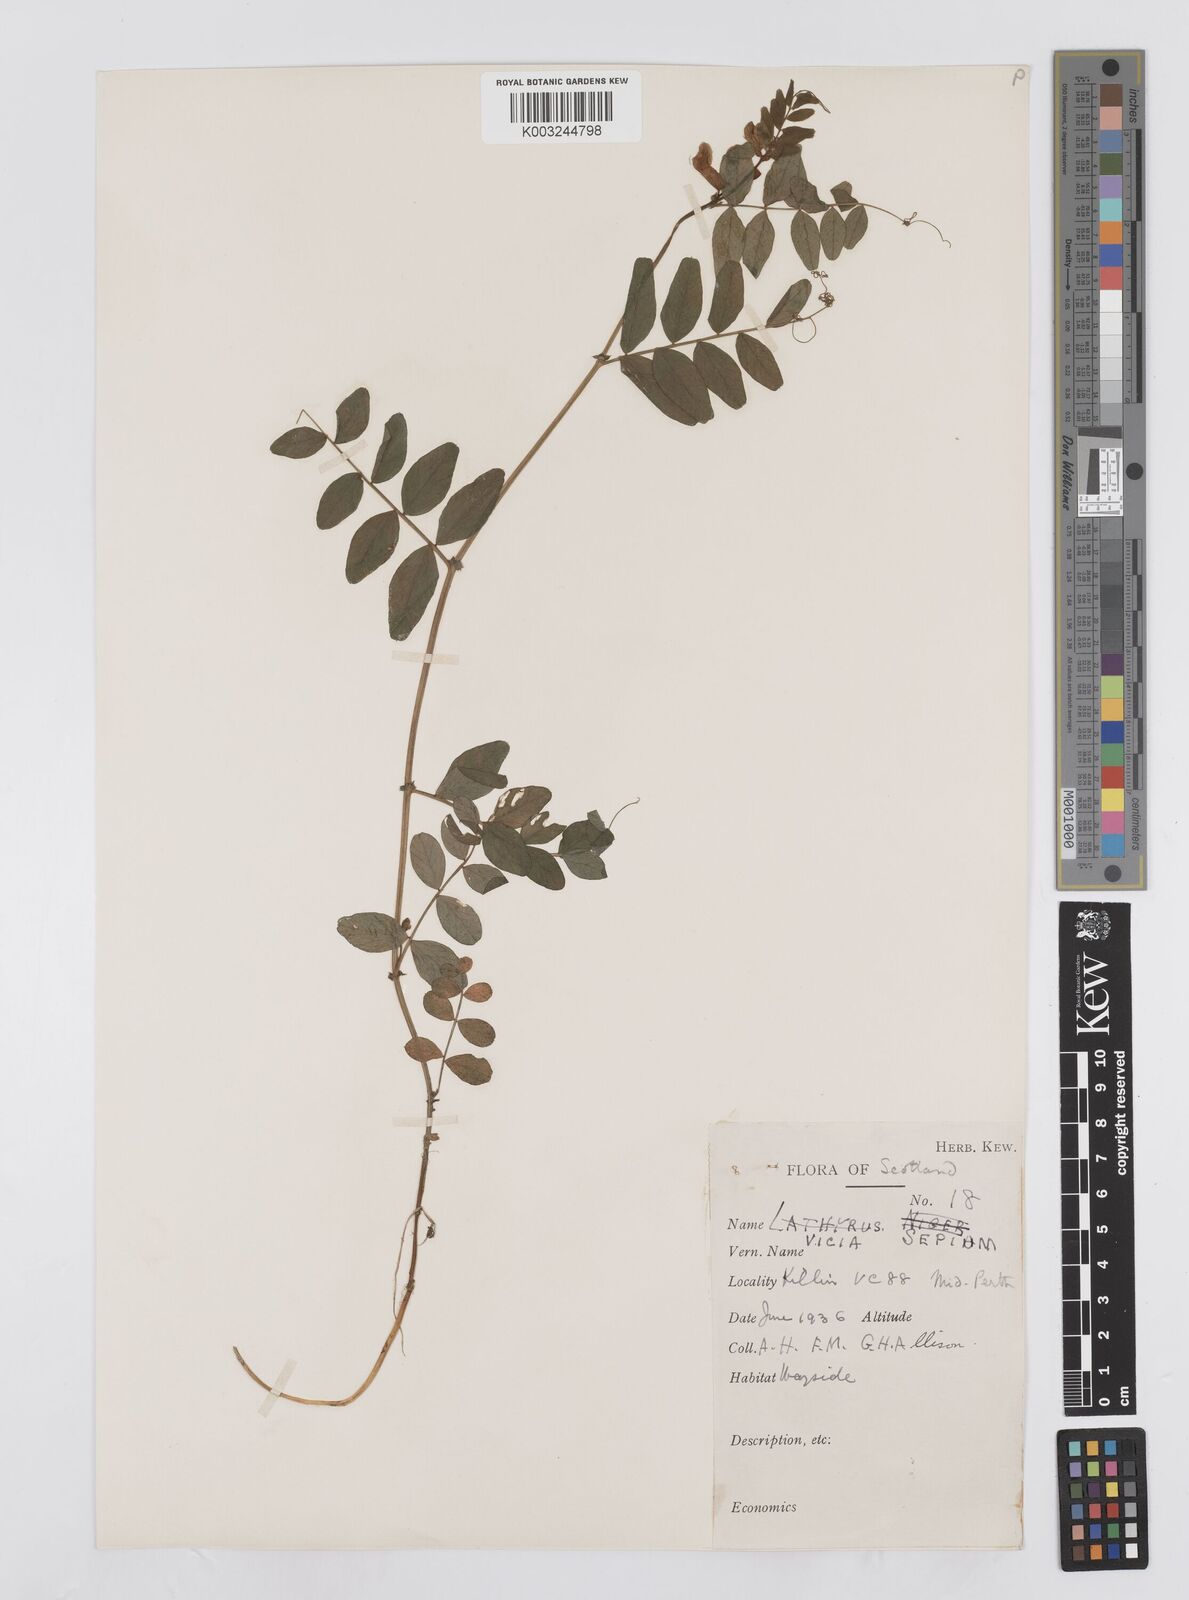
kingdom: Plantae
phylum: Tracheophyta
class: Magnoliopsida
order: Fabales
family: Fabaceae
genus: Vicia
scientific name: Vicia sepium
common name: Bush vetch
